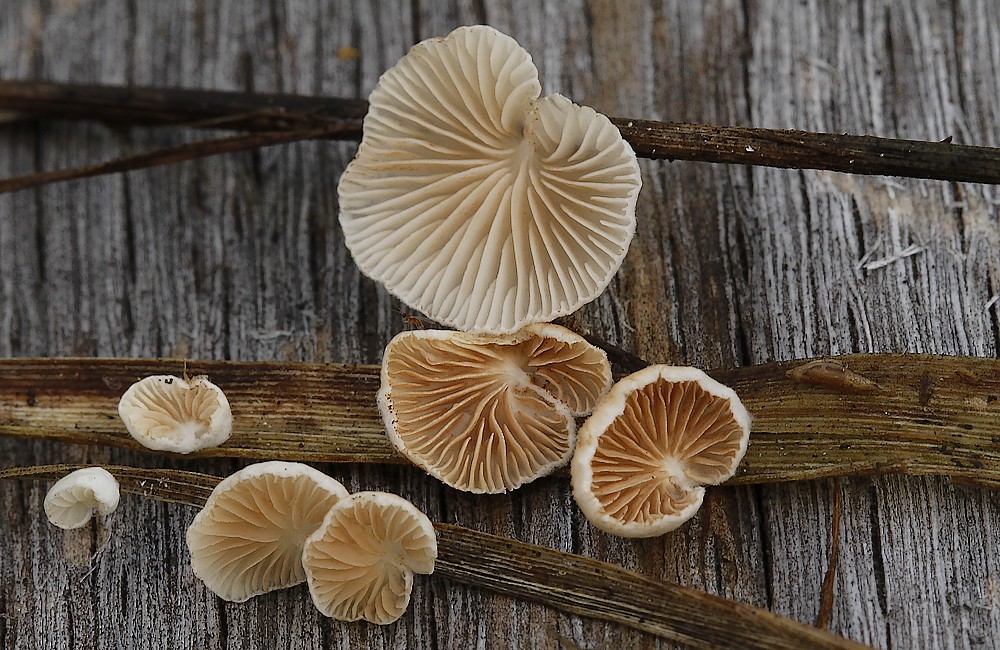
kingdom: Fungi
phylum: Basidiomycota
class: Agaricomycetes
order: Agaricales
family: Crepidotaceae
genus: Crepidotus
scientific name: Crepidotus epibryus
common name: førne-muslingesvamp
